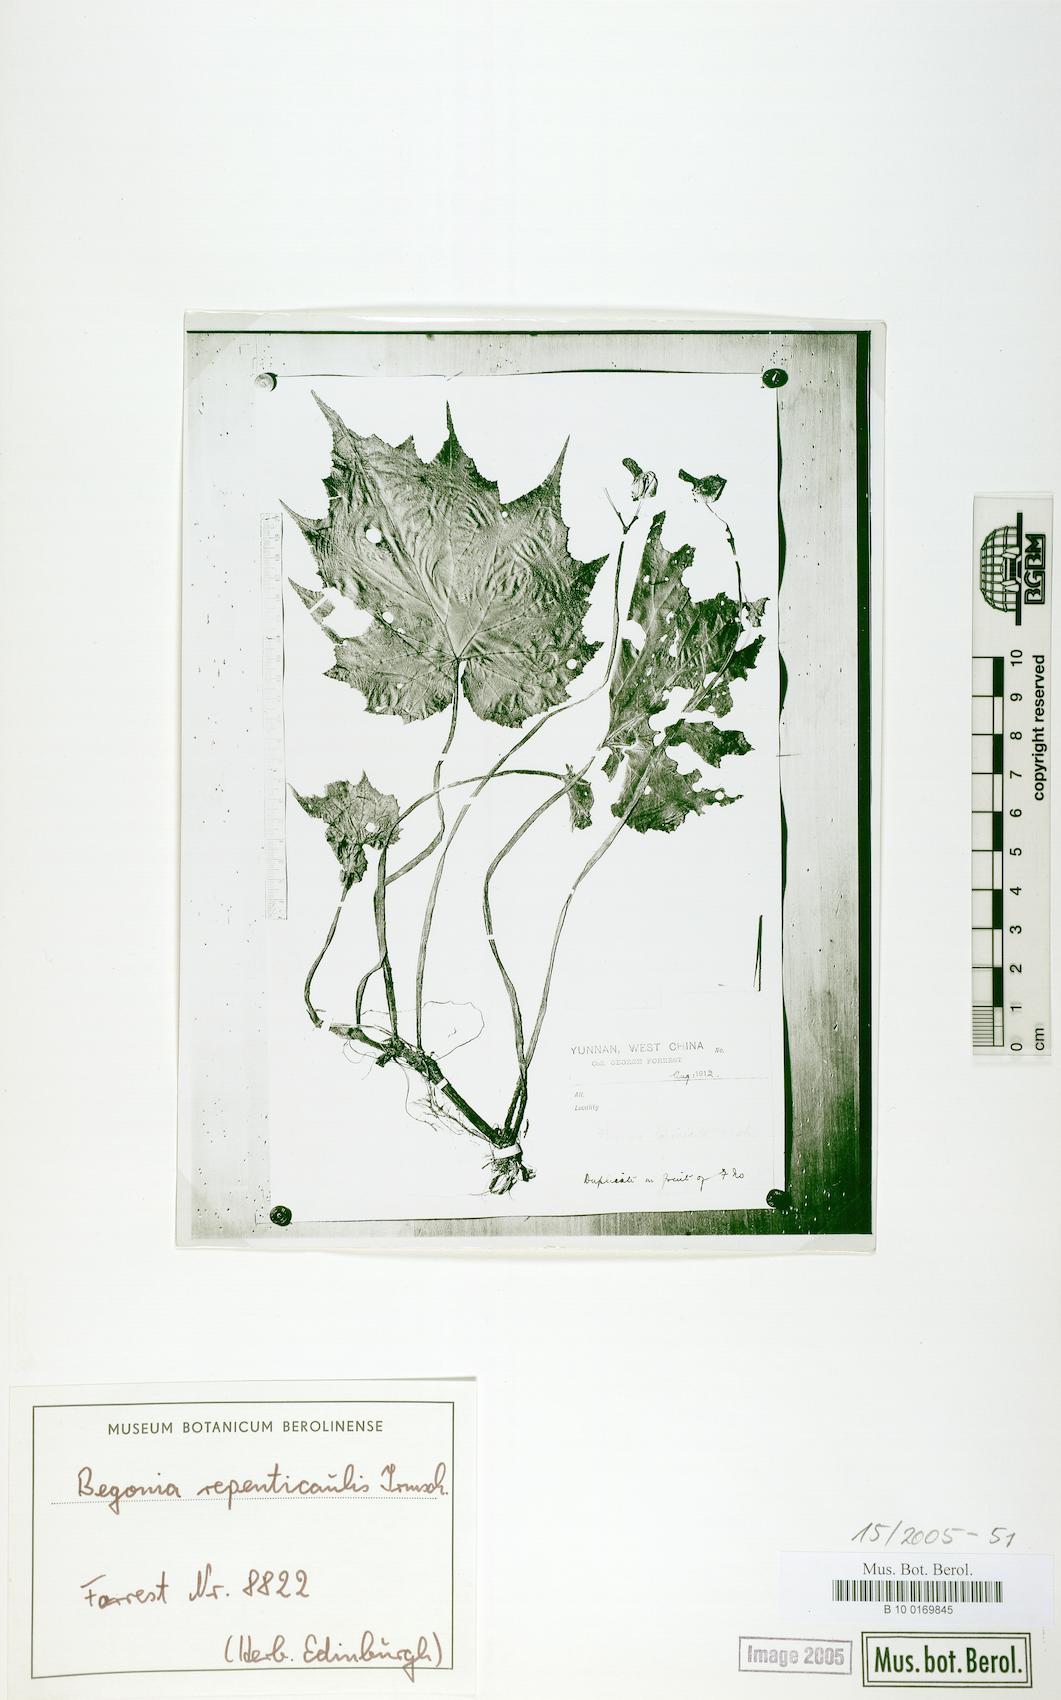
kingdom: Plantae
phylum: Tracheophyta
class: Magnoliopsida
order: Cucurbitales
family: Begoniaceae
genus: Begonia
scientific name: Begonia repenticaulis
